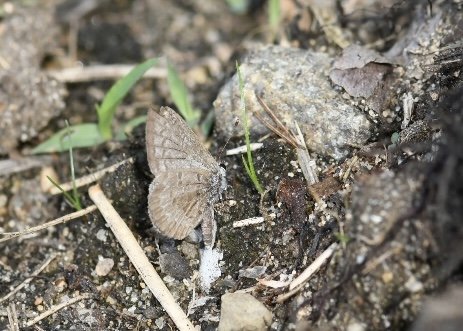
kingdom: Animalia
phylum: Arthropoda
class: Insecta
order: Lepidoptera
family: Lycaenidae
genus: Celastrina
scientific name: Celastrina lucia
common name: Northern Spring Azure
